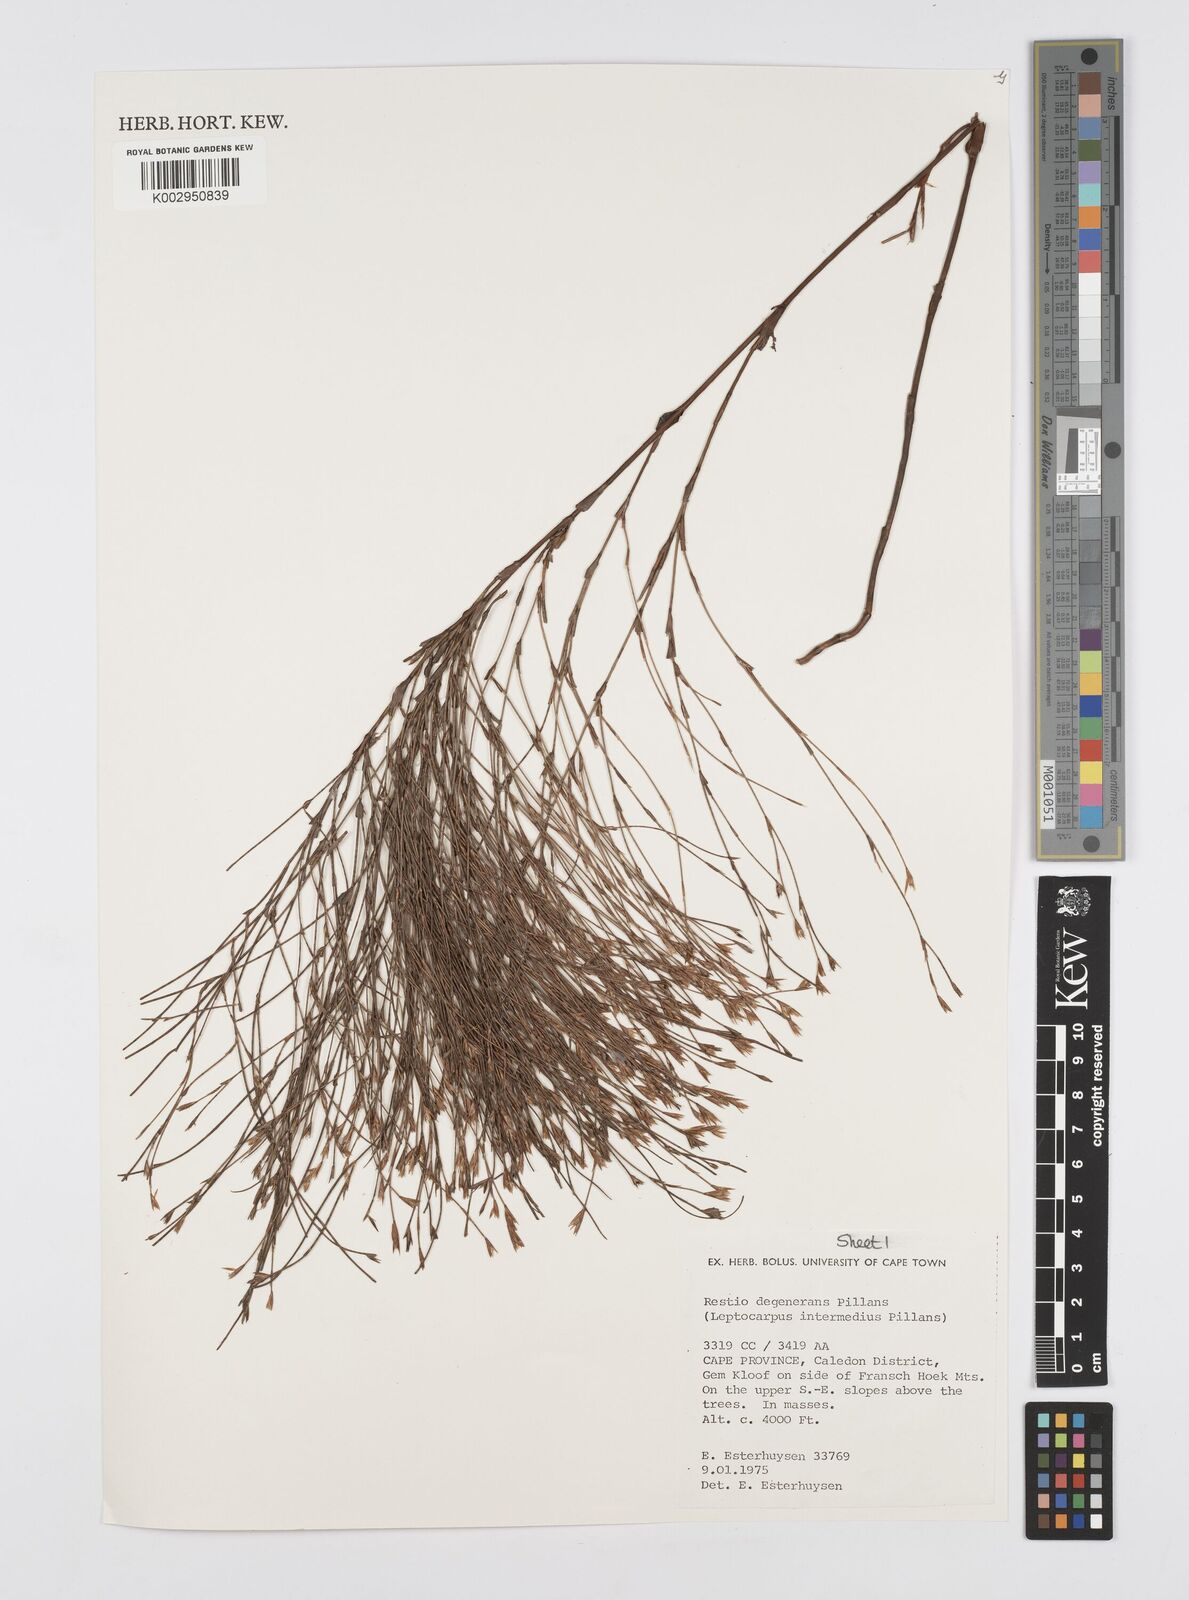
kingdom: Plantae
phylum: Tracheophyta
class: Liliopsida
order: Poales
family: Restionaceae
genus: Restio
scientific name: Restio degenerans
